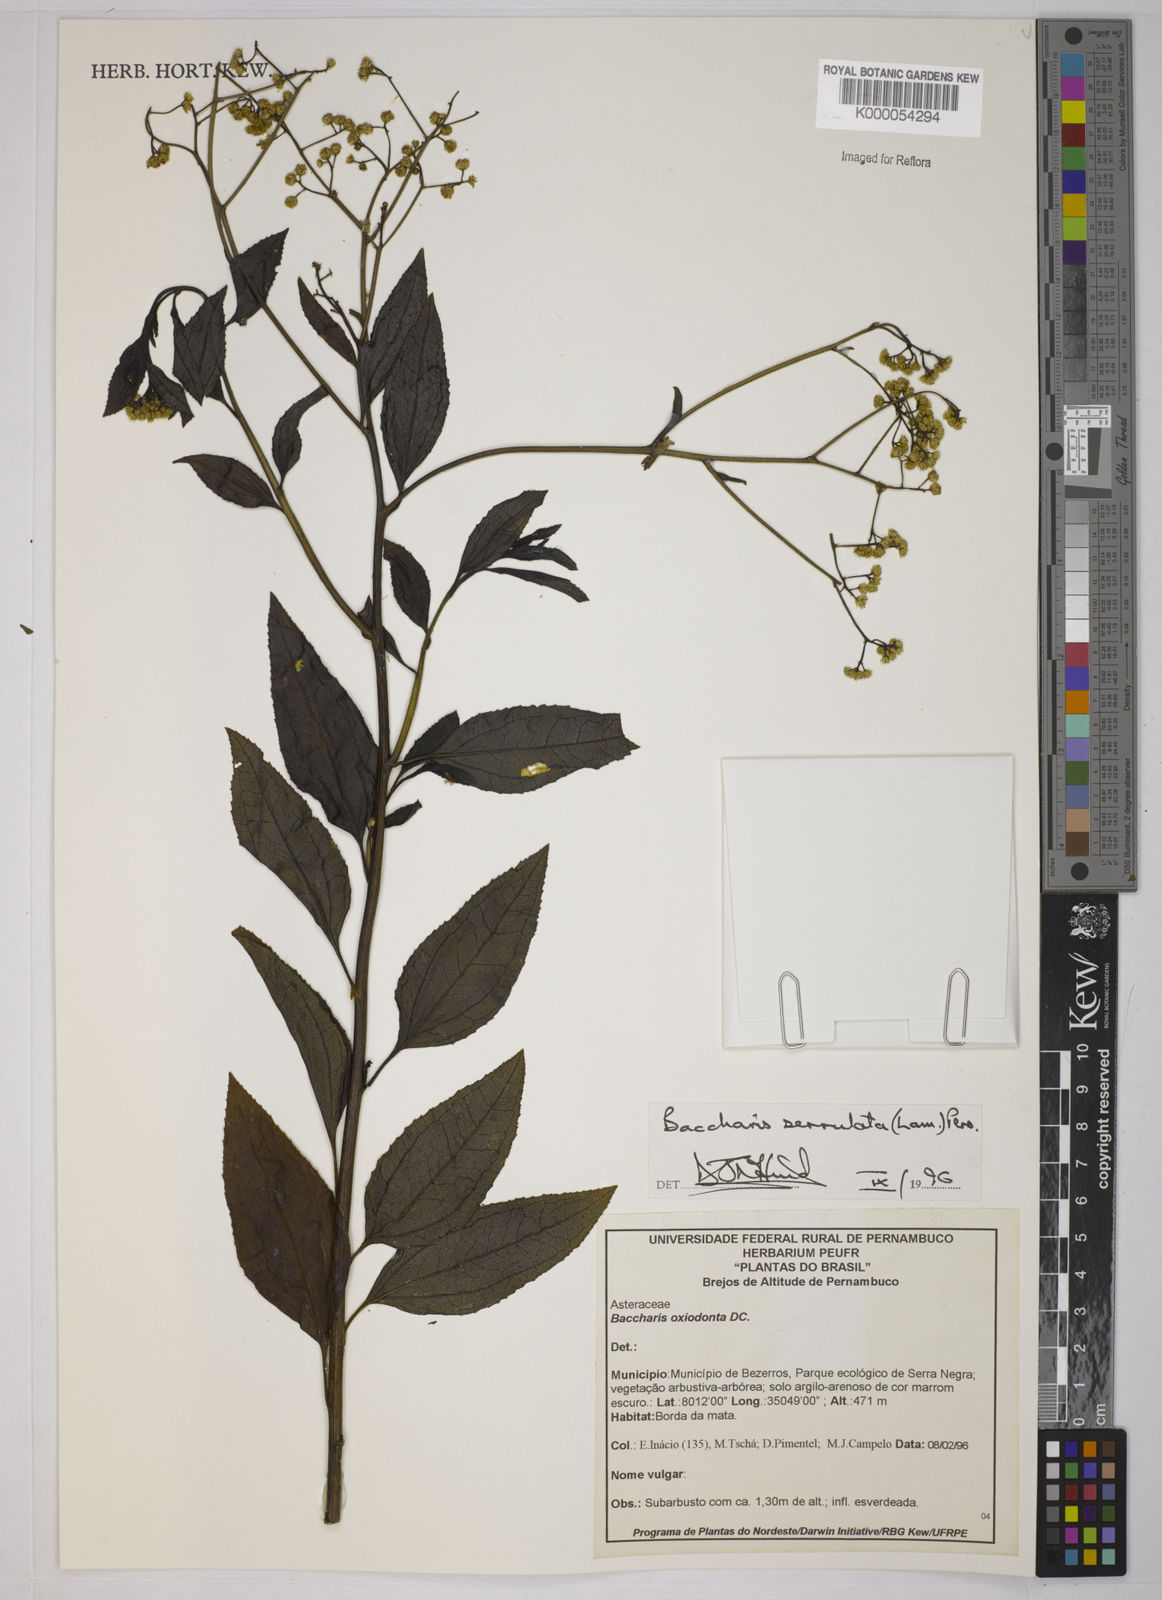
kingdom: Plantae
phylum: Tracheophyta
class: Magnoliopsida
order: Asterales
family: Asteraceae
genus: Baccharis
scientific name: Baccharis serrulata
